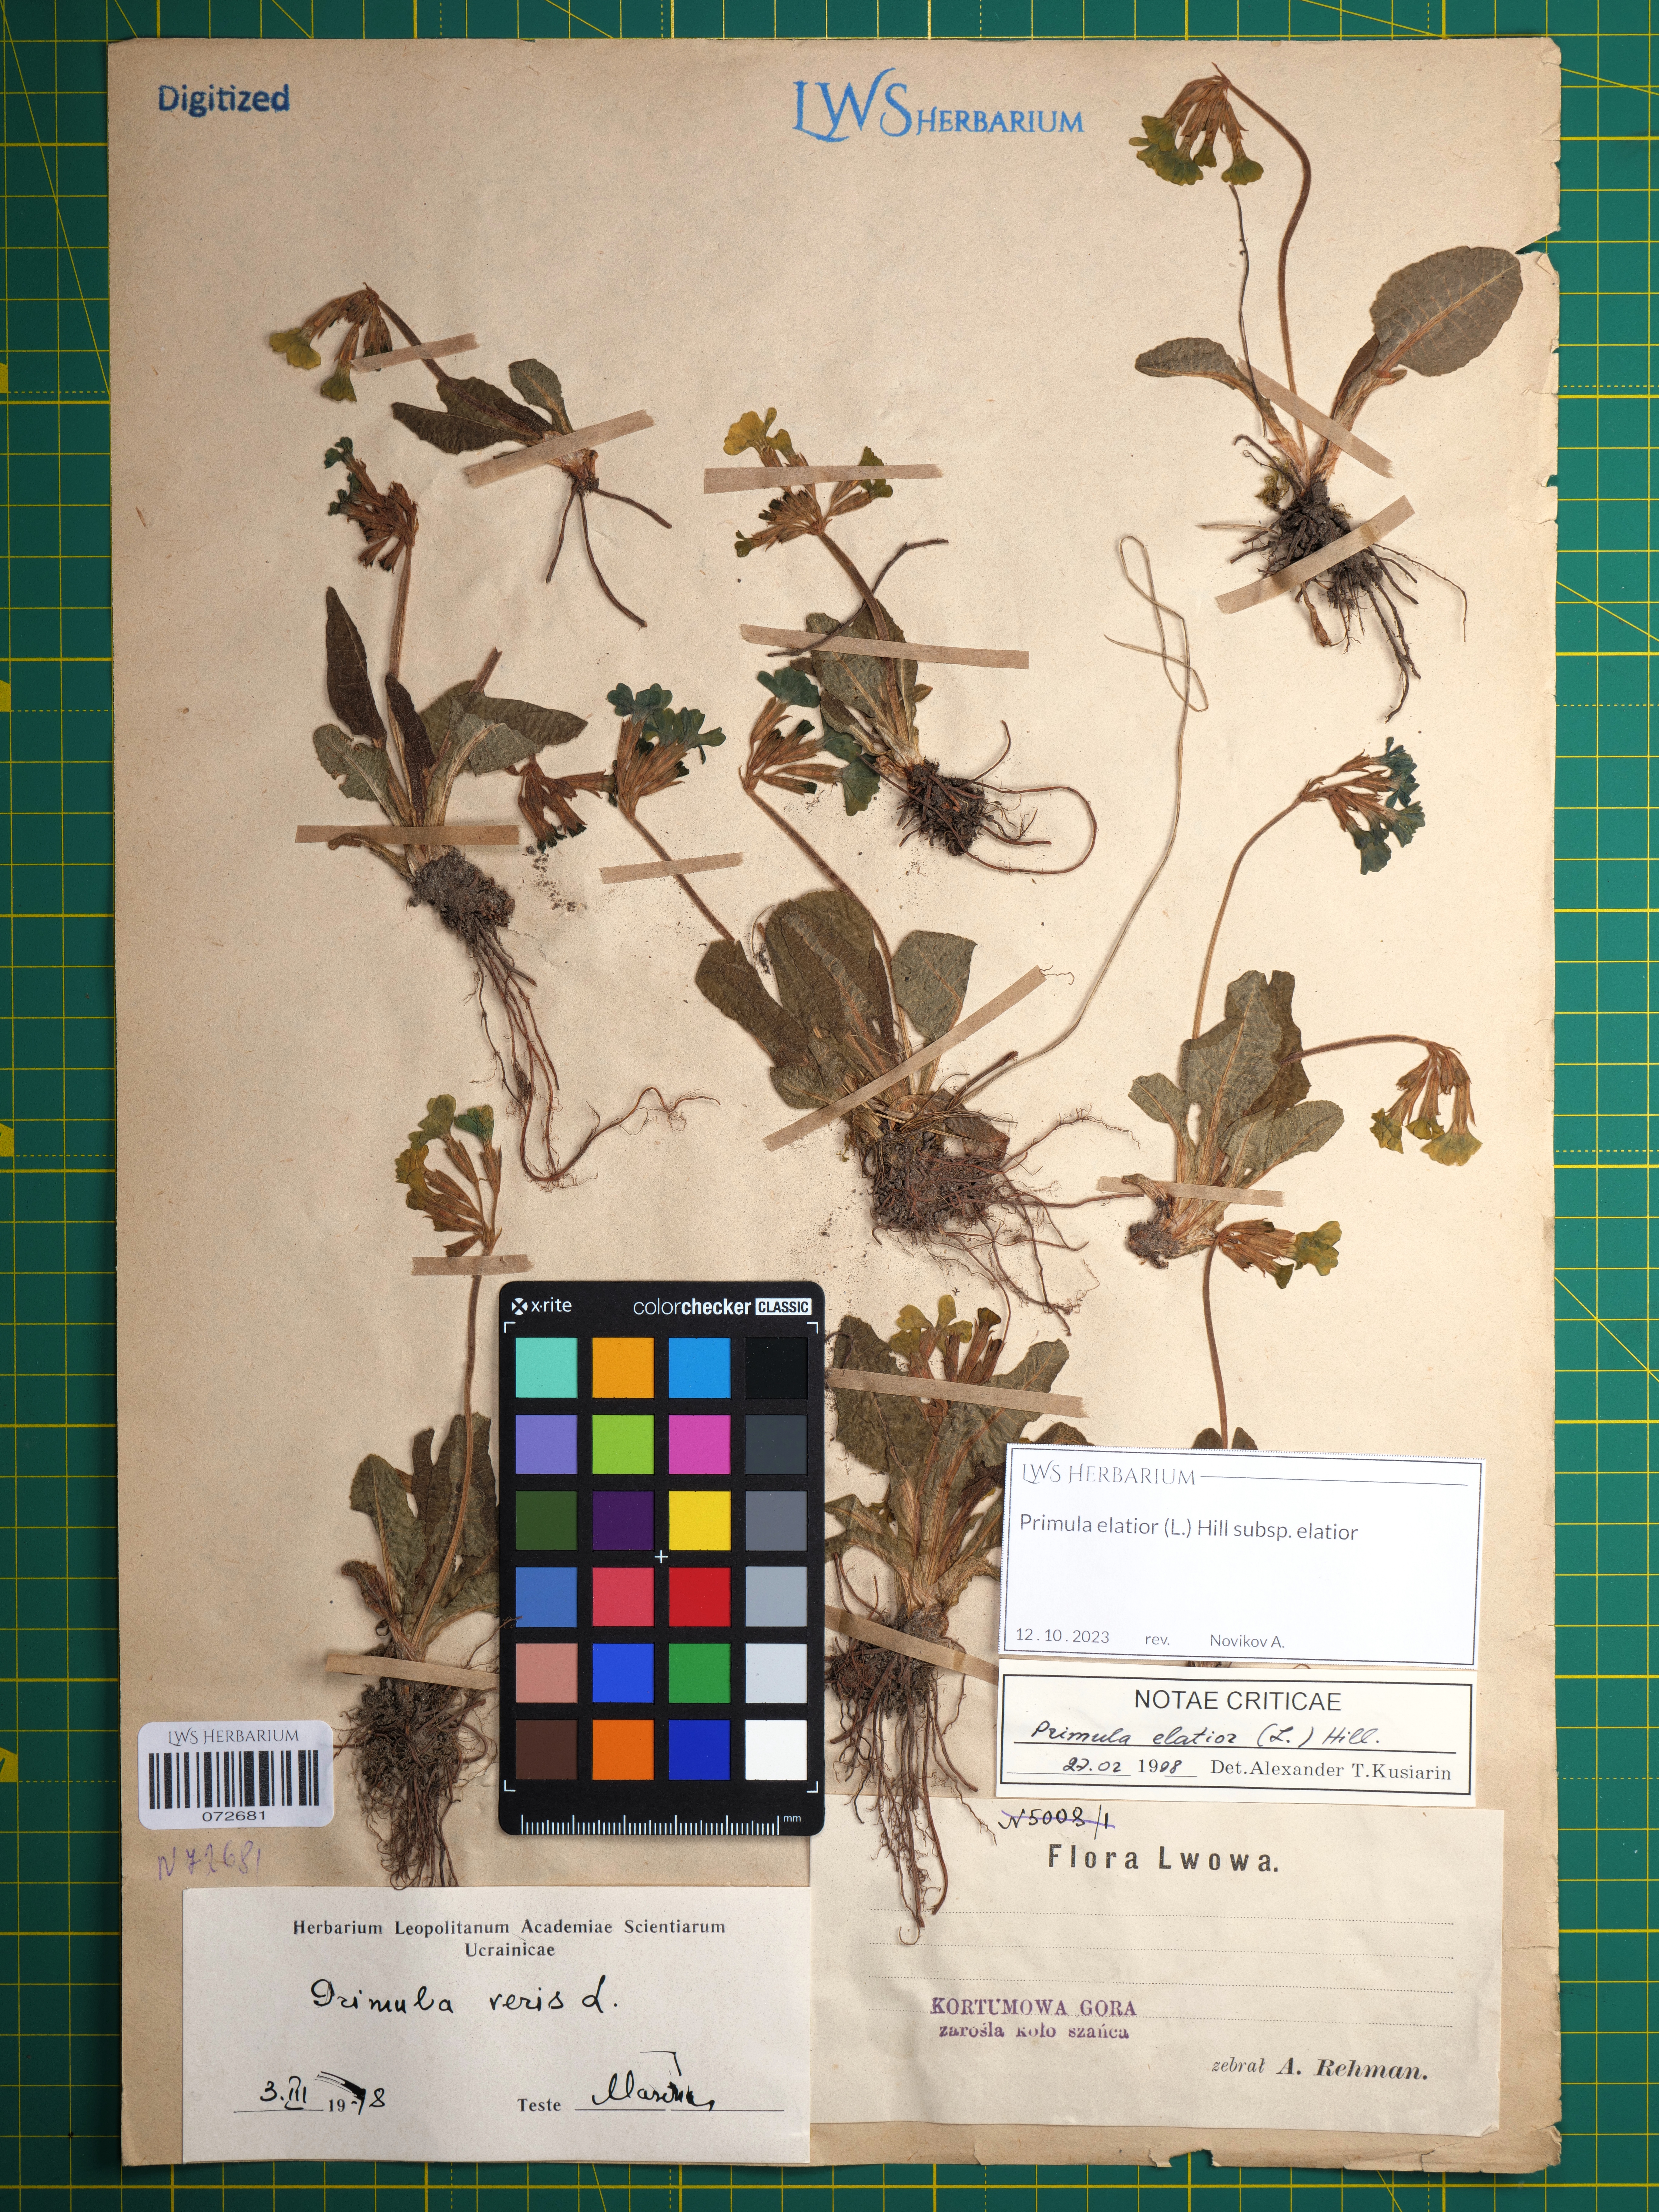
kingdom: Plantae
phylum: Tracheophyta
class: Magnoliopsida
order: Ericales
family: Primulaceae
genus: Primula
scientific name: Primula elatior
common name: Oxlip
